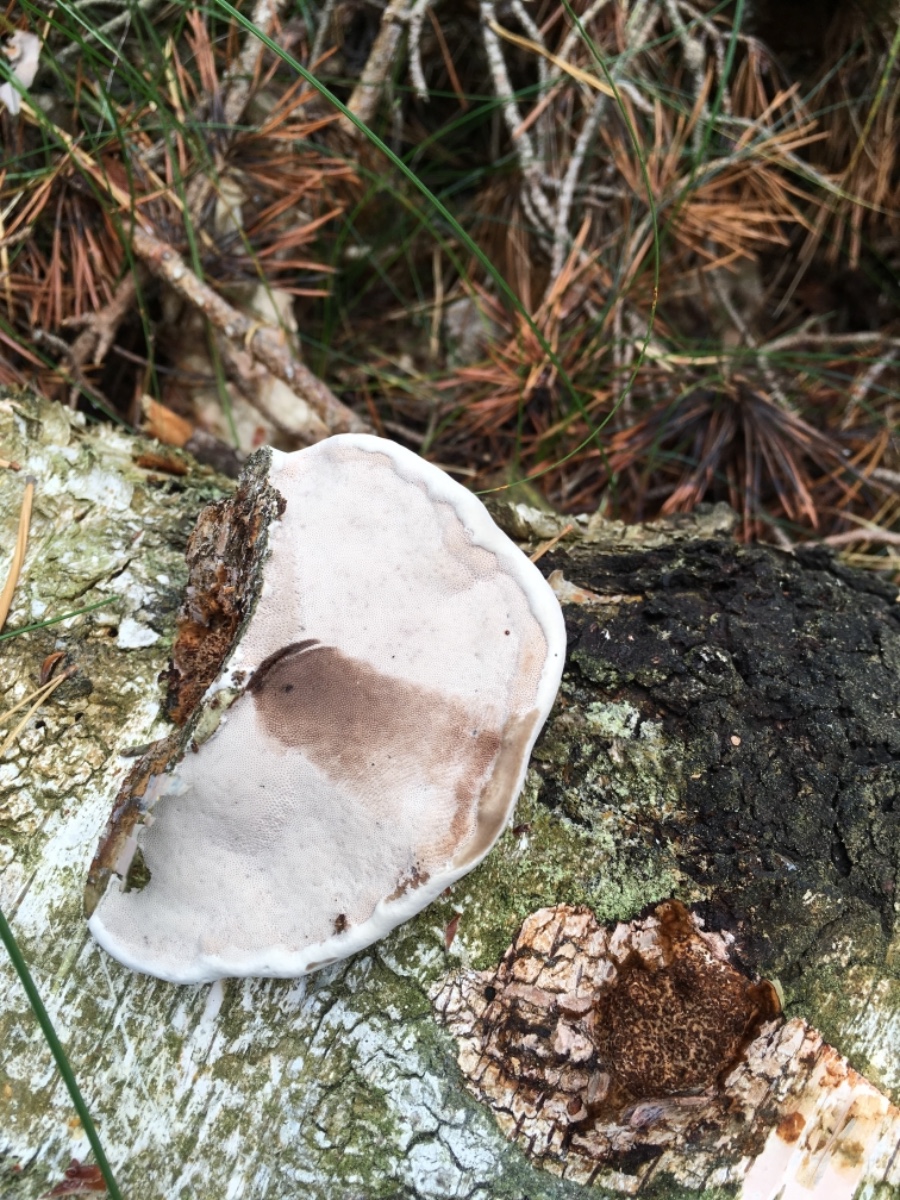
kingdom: Fungi
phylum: Basidiomycota
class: Agaricomycetes
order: Polyporales
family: Polyporaceae
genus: Fomes
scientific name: Fomes fomentarius
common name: tøndersvamp
